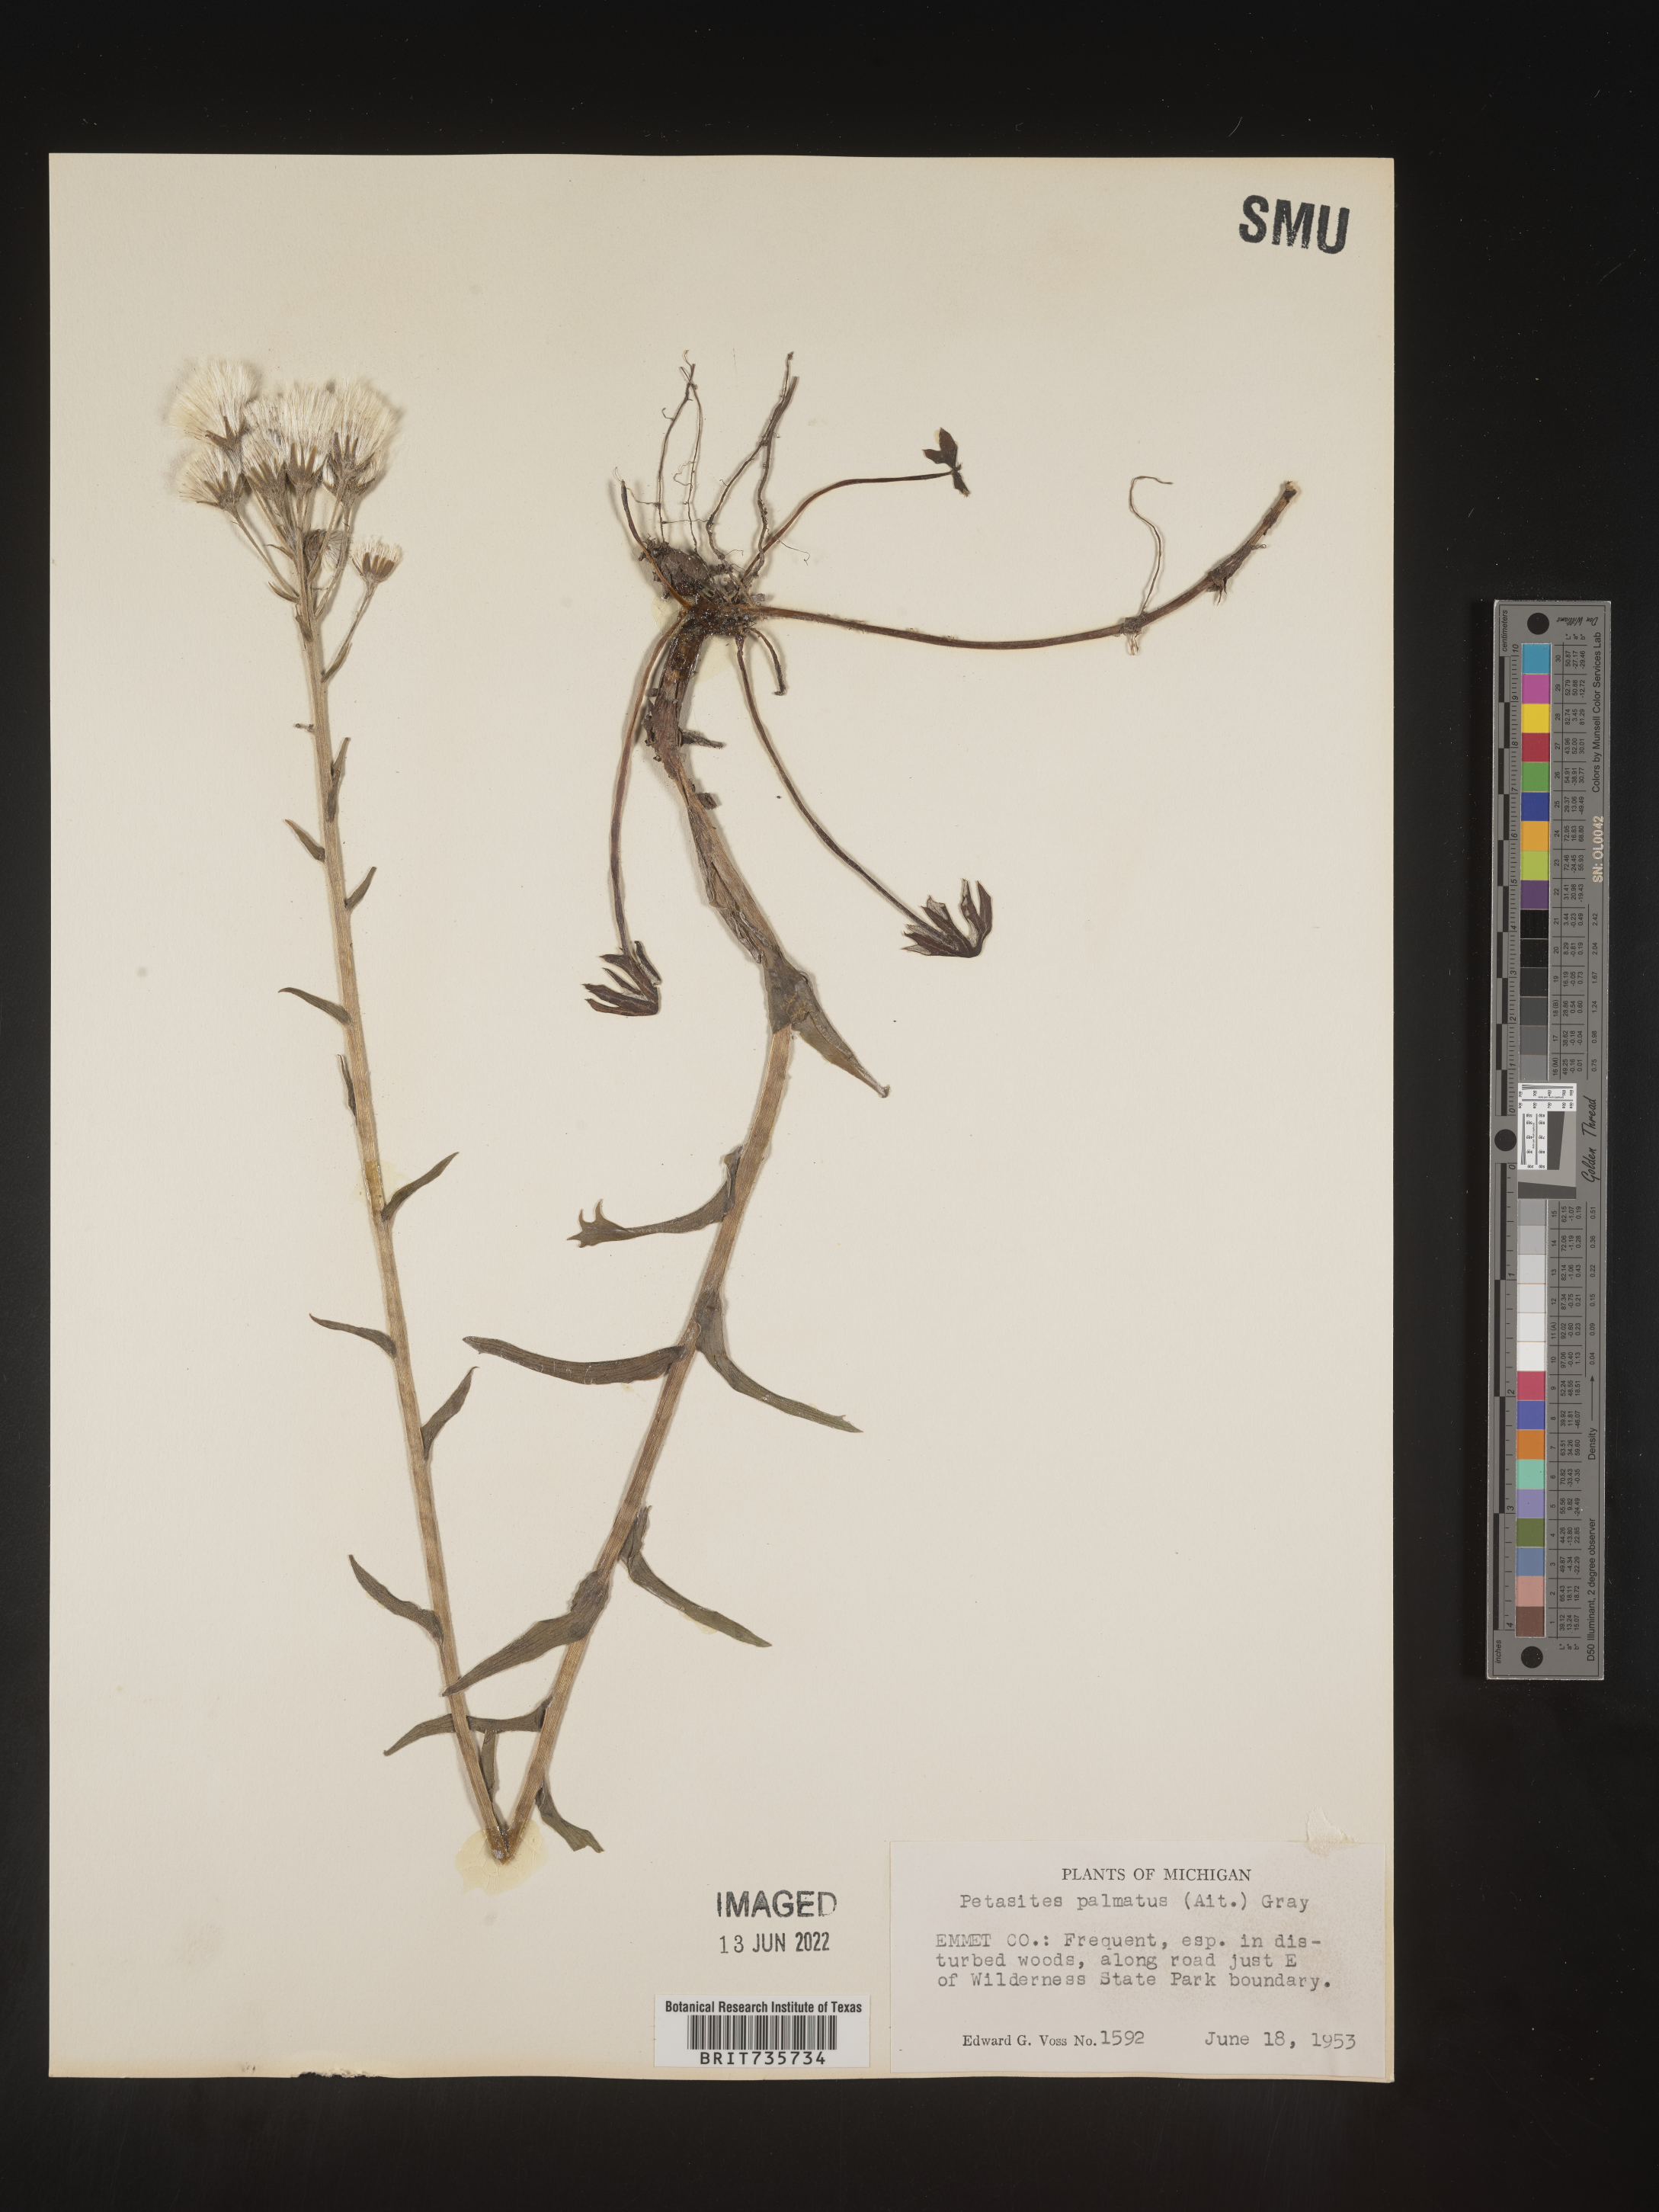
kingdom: Plantae
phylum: Tracheophyta
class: Magnoliopsida
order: Asterales
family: Asteraceae
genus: Petasites
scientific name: Petasites frigidus
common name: Arctic butterbur
